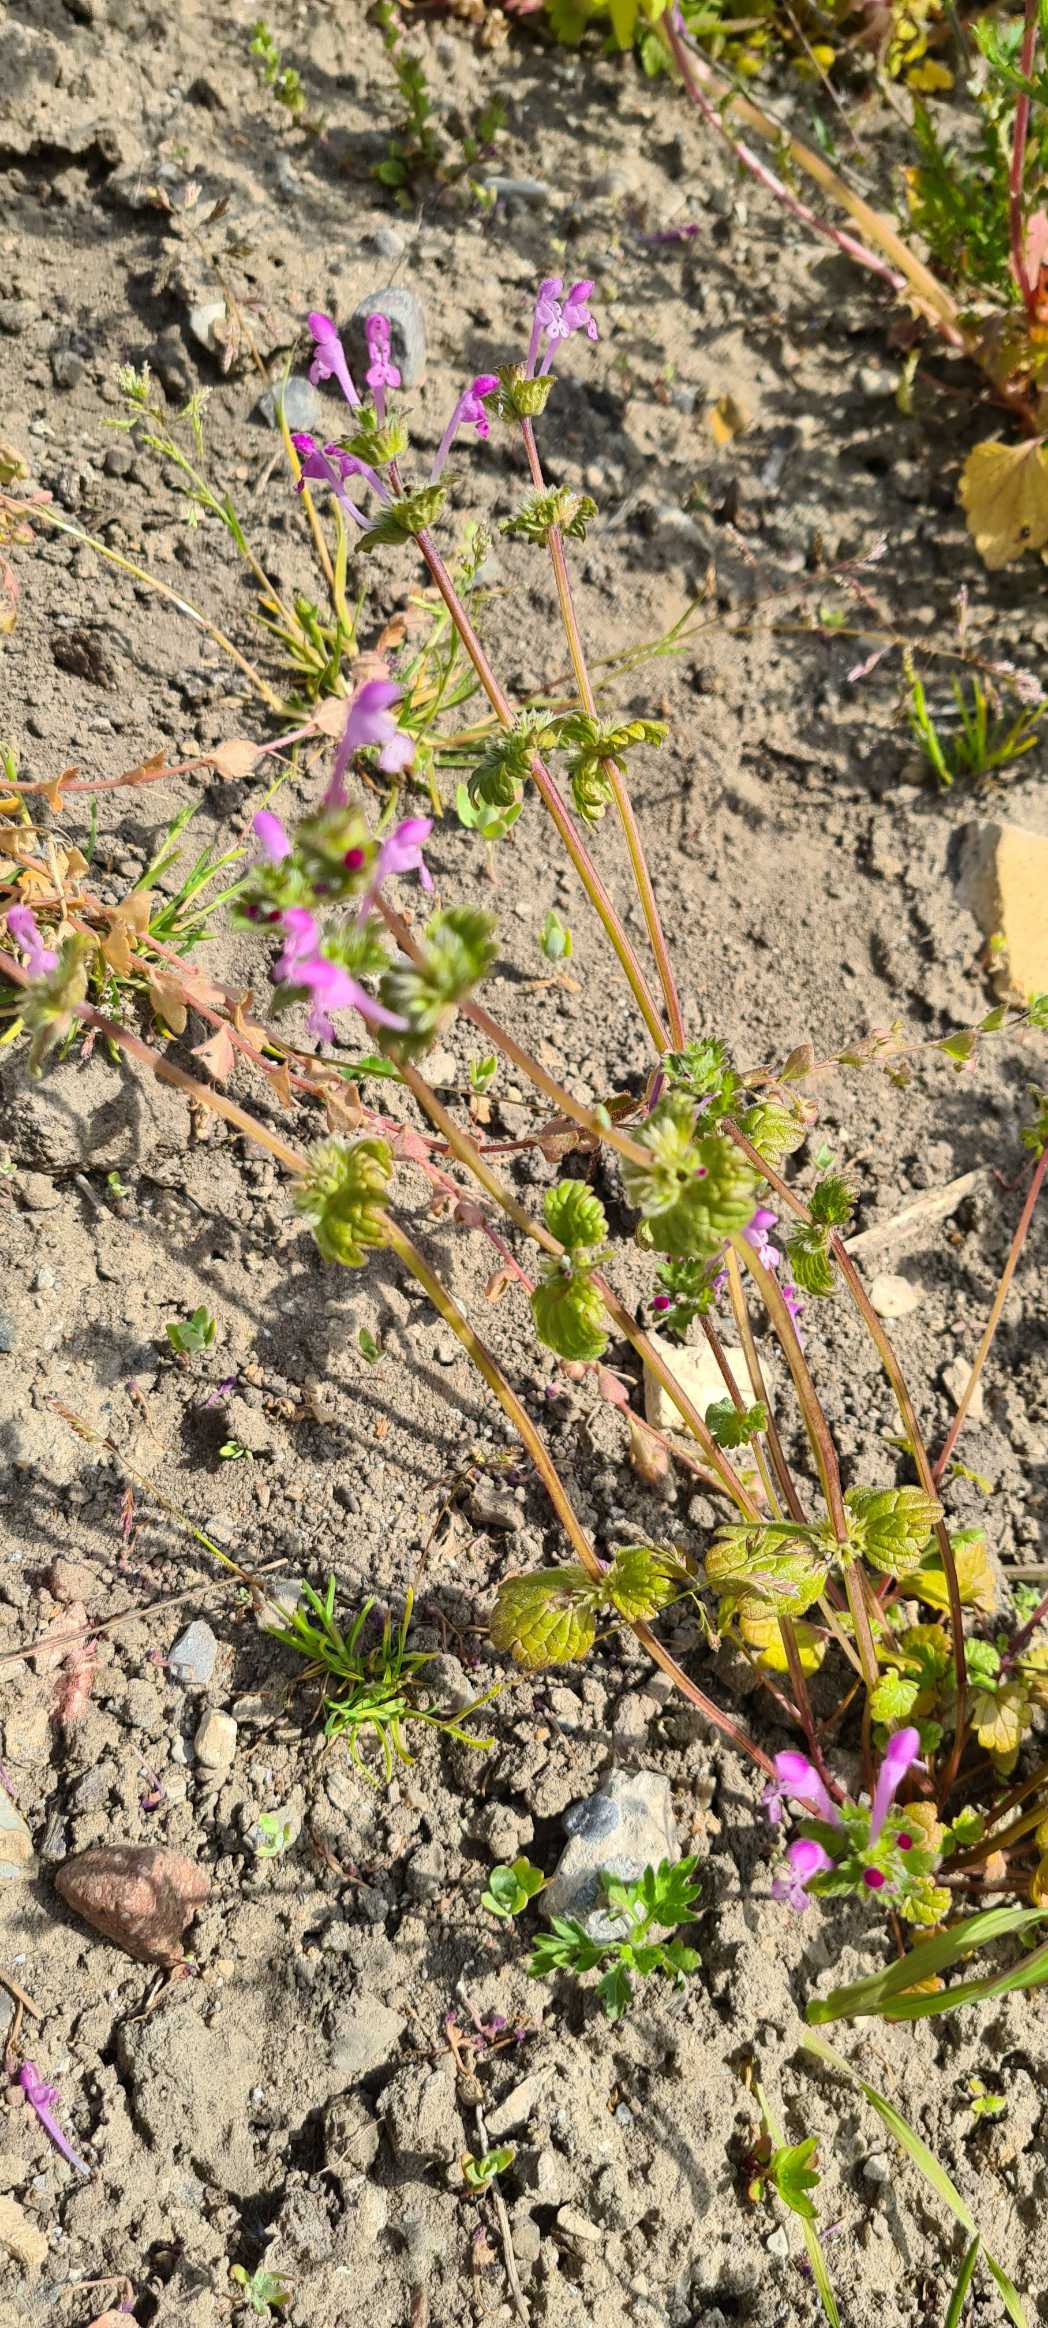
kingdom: Plantae
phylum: Tracheophyta
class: Magnoliopsida
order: Lamiales
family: Lamiaceae
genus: Lamium
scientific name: Lamium amplexicaule
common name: Liden tvetand
